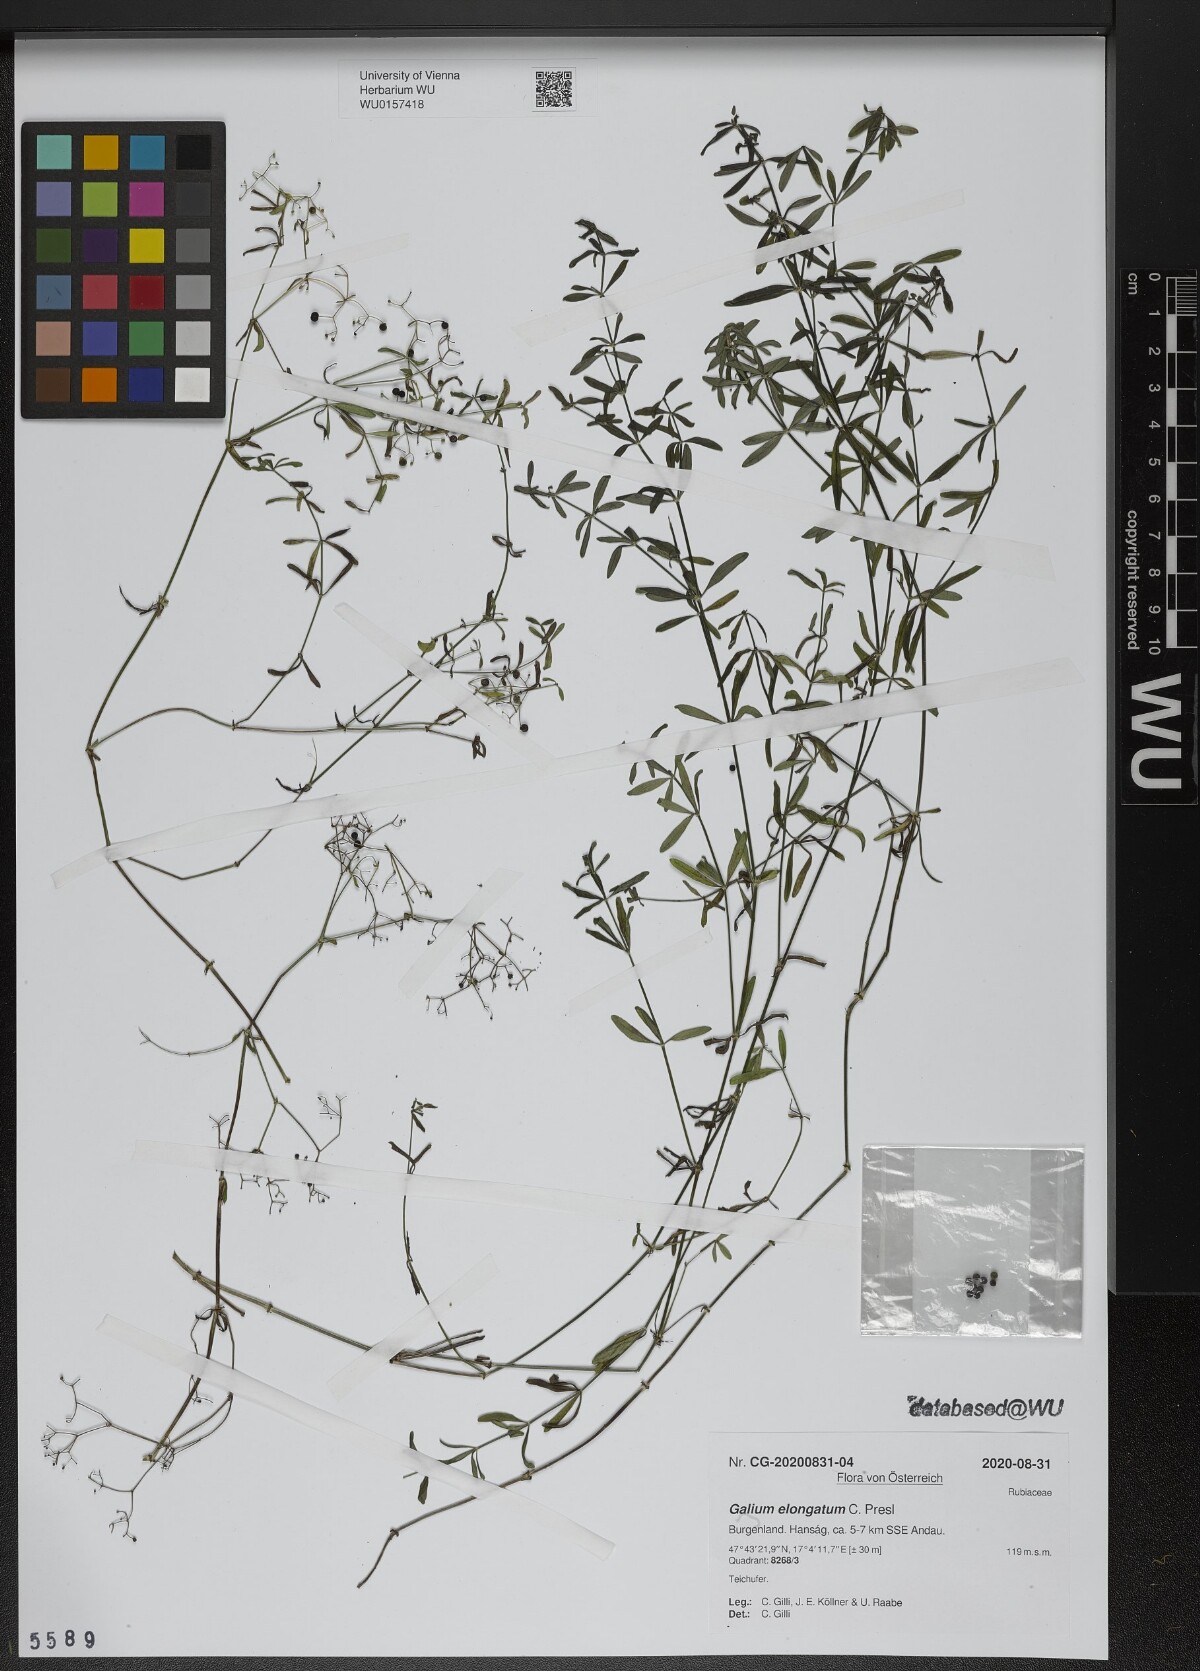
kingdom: Plantae
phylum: Tracheophyta
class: Magnoliopsida
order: Gentianales
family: Rubiaceae
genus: Galium
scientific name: Galium elongatum
